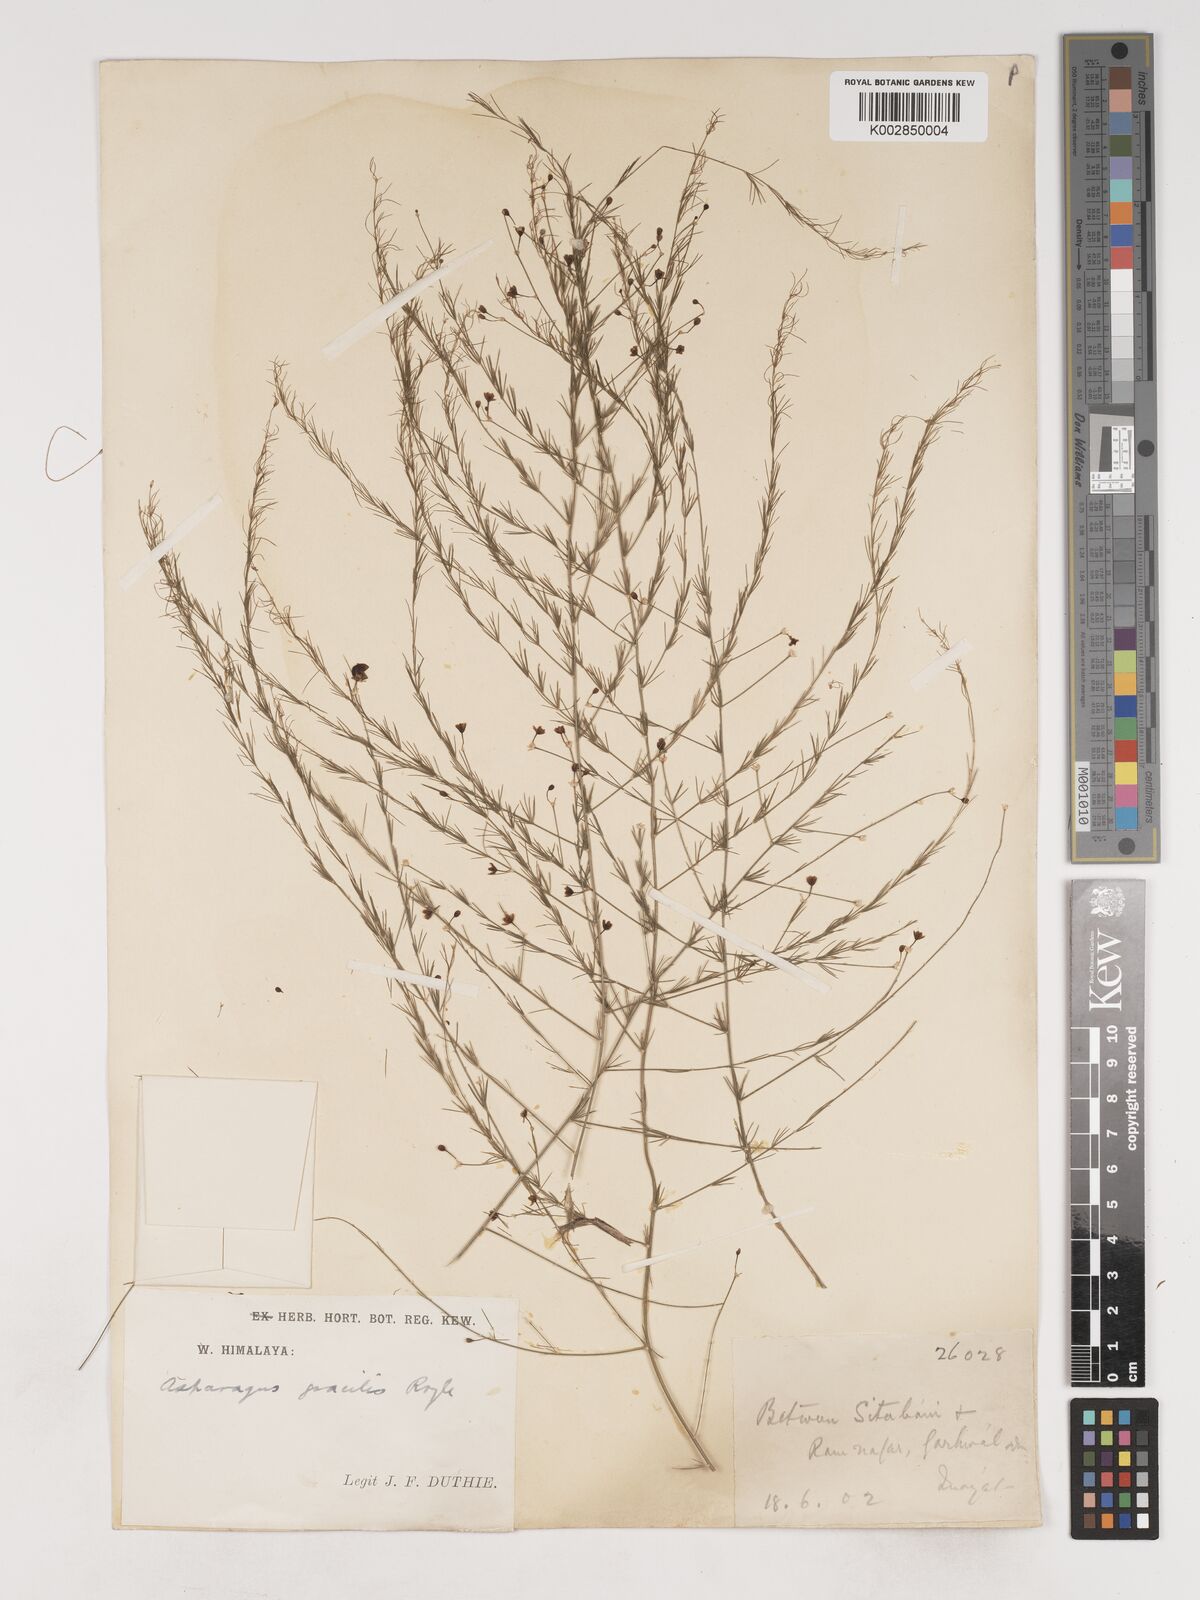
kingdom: Plantae
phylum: Tracheophyta
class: Liliopsida
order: Asparagales
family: Asparagaceae
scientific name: Asparagaceae
